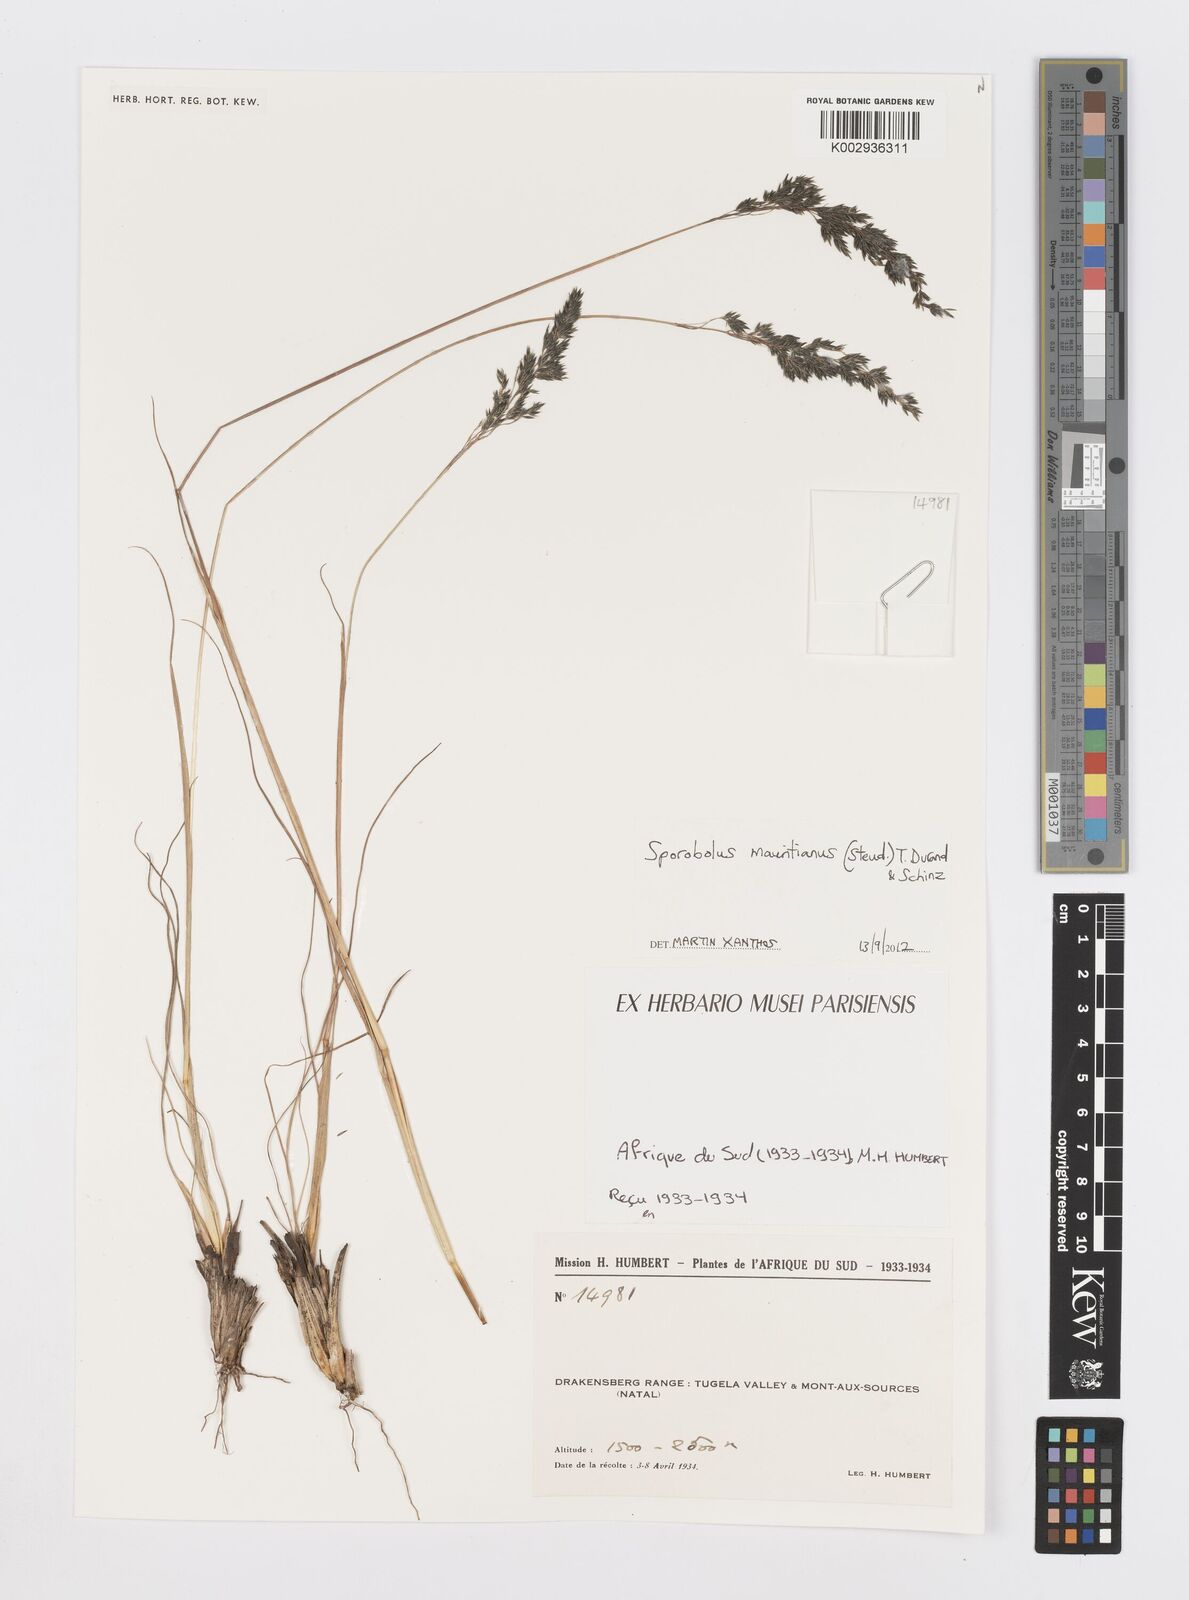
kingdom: Plantae
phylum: Tracheophyta
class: Liliopsida
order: Poales
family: Poaceae
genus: Sporobolus
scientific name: Sporobolus subulatus
